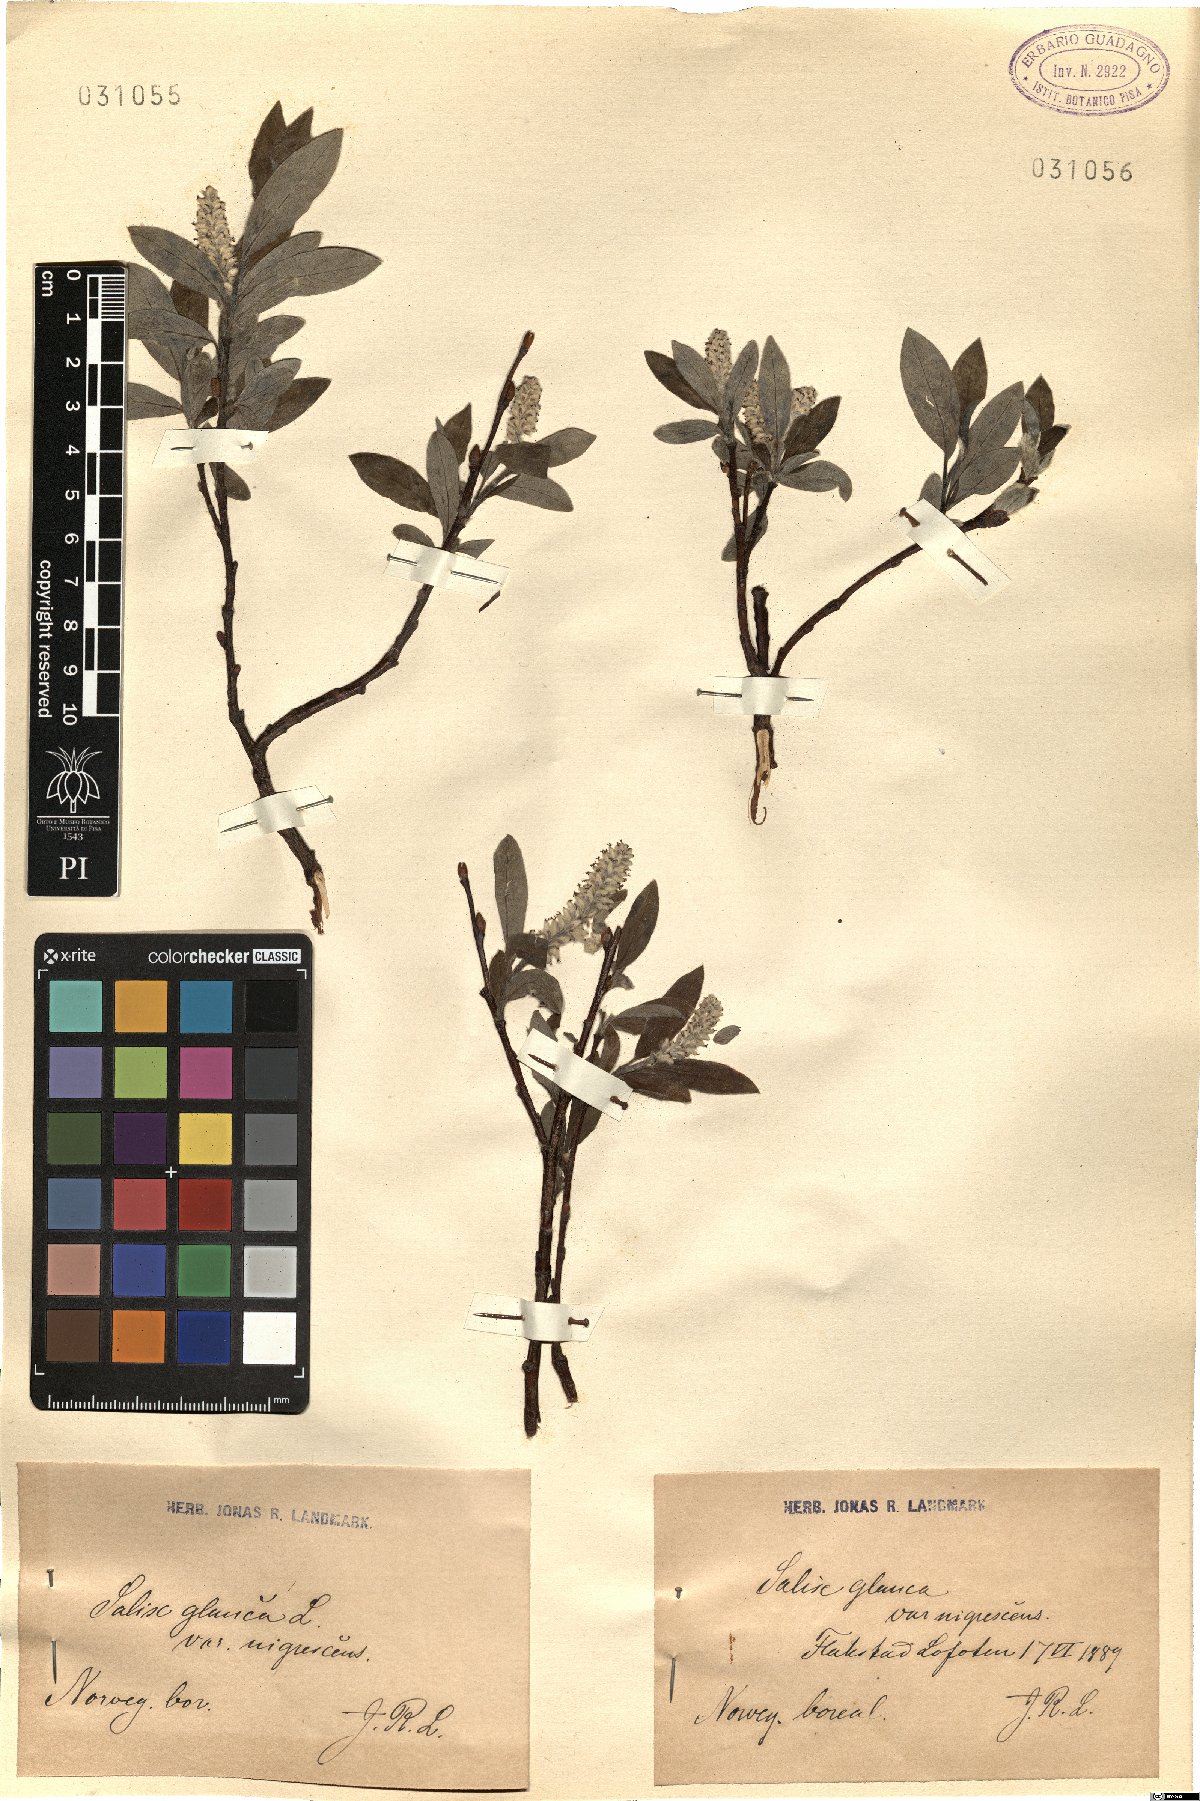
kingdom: Plantae
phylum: Tracheophyta
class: Magnoliopsida
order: Malpighiales
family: Salicaceae
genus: Salix
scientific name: Salix glauca
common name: Glaucous willow
